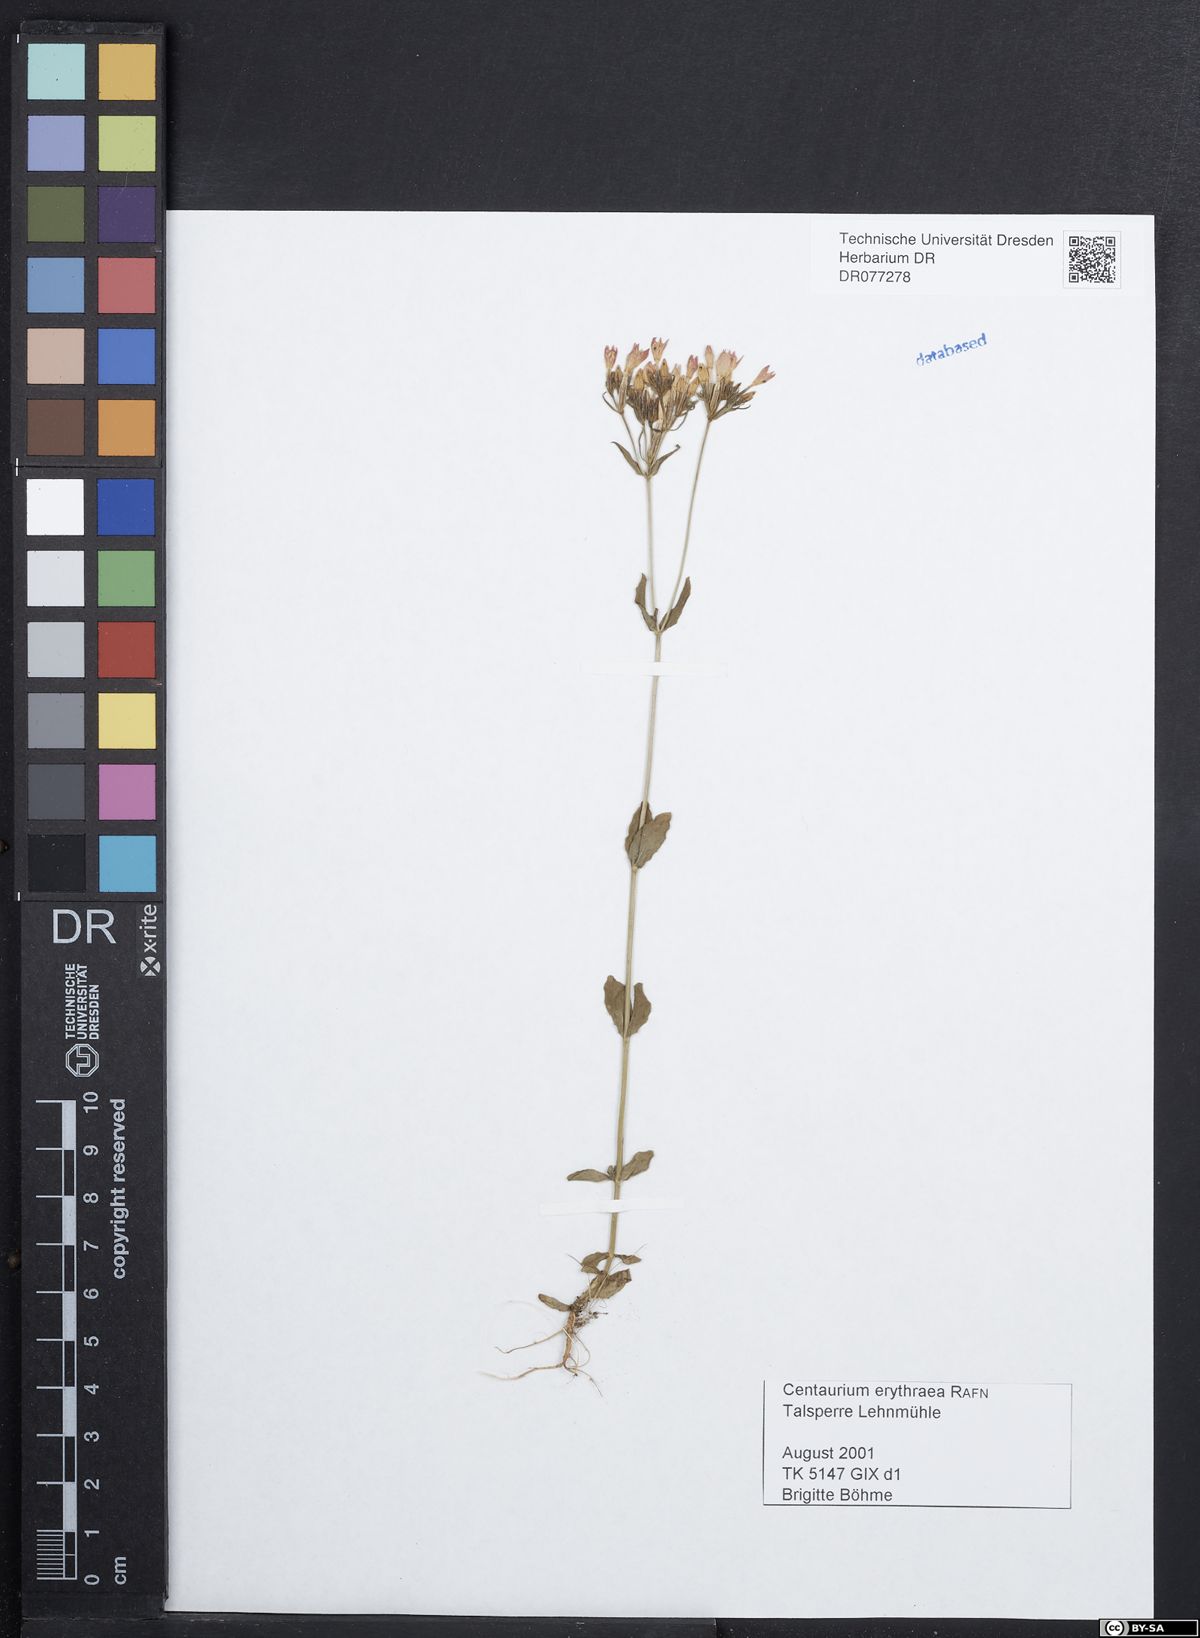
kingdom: Plantae
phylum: Tracheophyta
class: Magnoliopsida
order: Gentianales
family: Gentianaceae
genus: Centaurium
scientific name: Centaurium erythraea
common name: Common centaury
